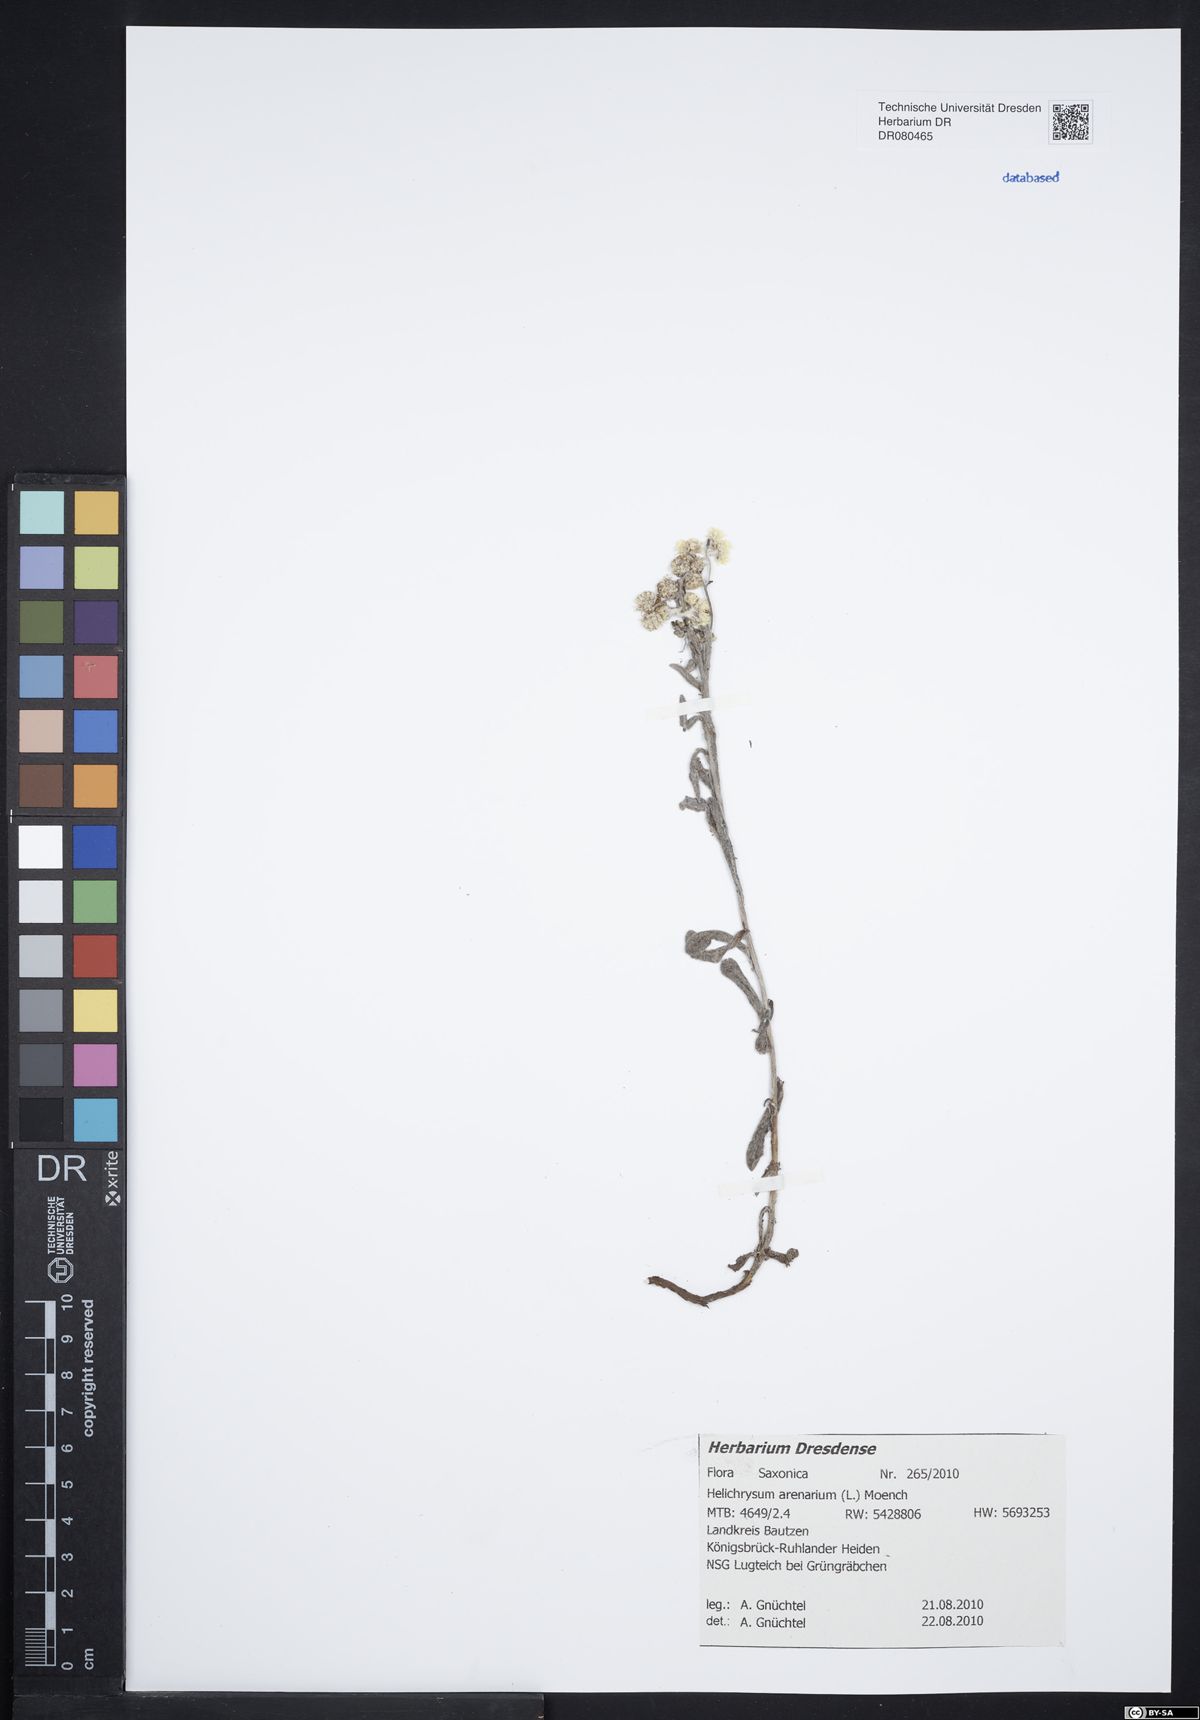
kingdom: Plantae
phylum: Tracheophyta
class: Magnoliopsida
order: Asterales
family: Asteraceae
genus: Helichrysum
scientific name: Helichrysum arenarium
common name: Strawflower
